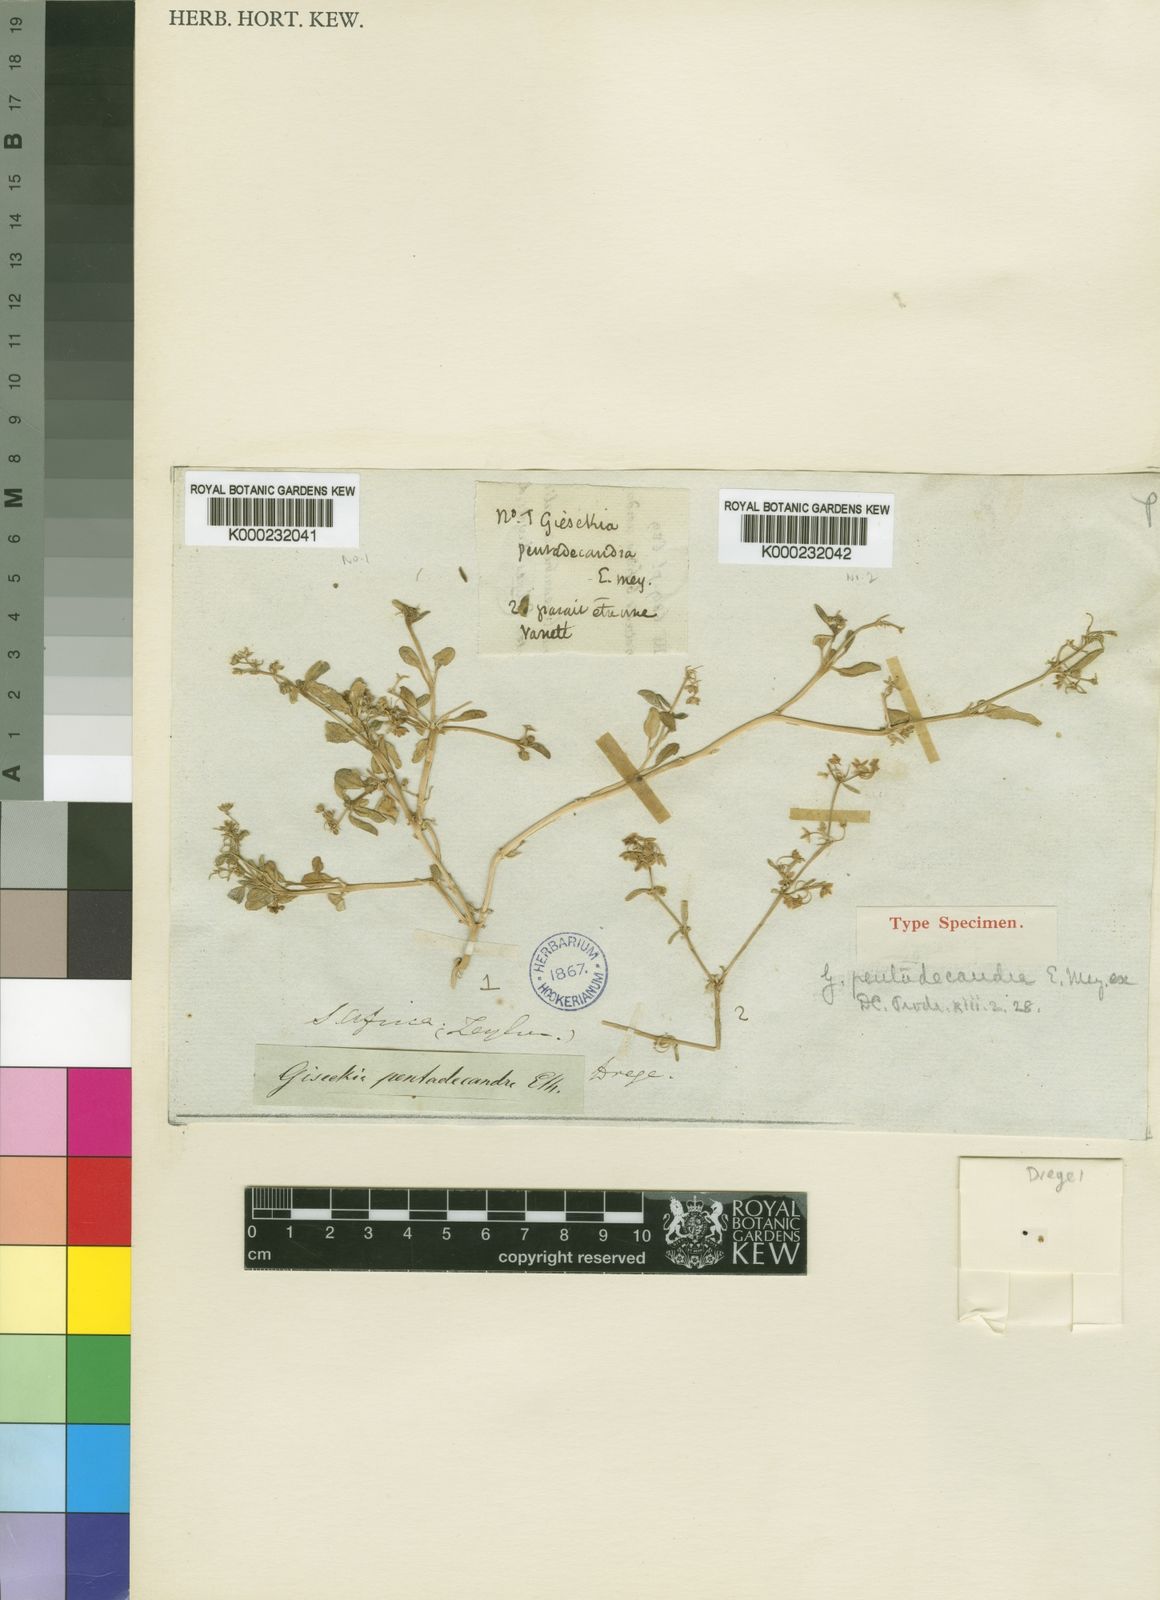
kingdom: Plantae
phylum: Tracheophyta
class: Magnoliopsida
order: Caryophyllales
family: Gisekiaceae
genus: Gisekia
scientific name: Gisekia
